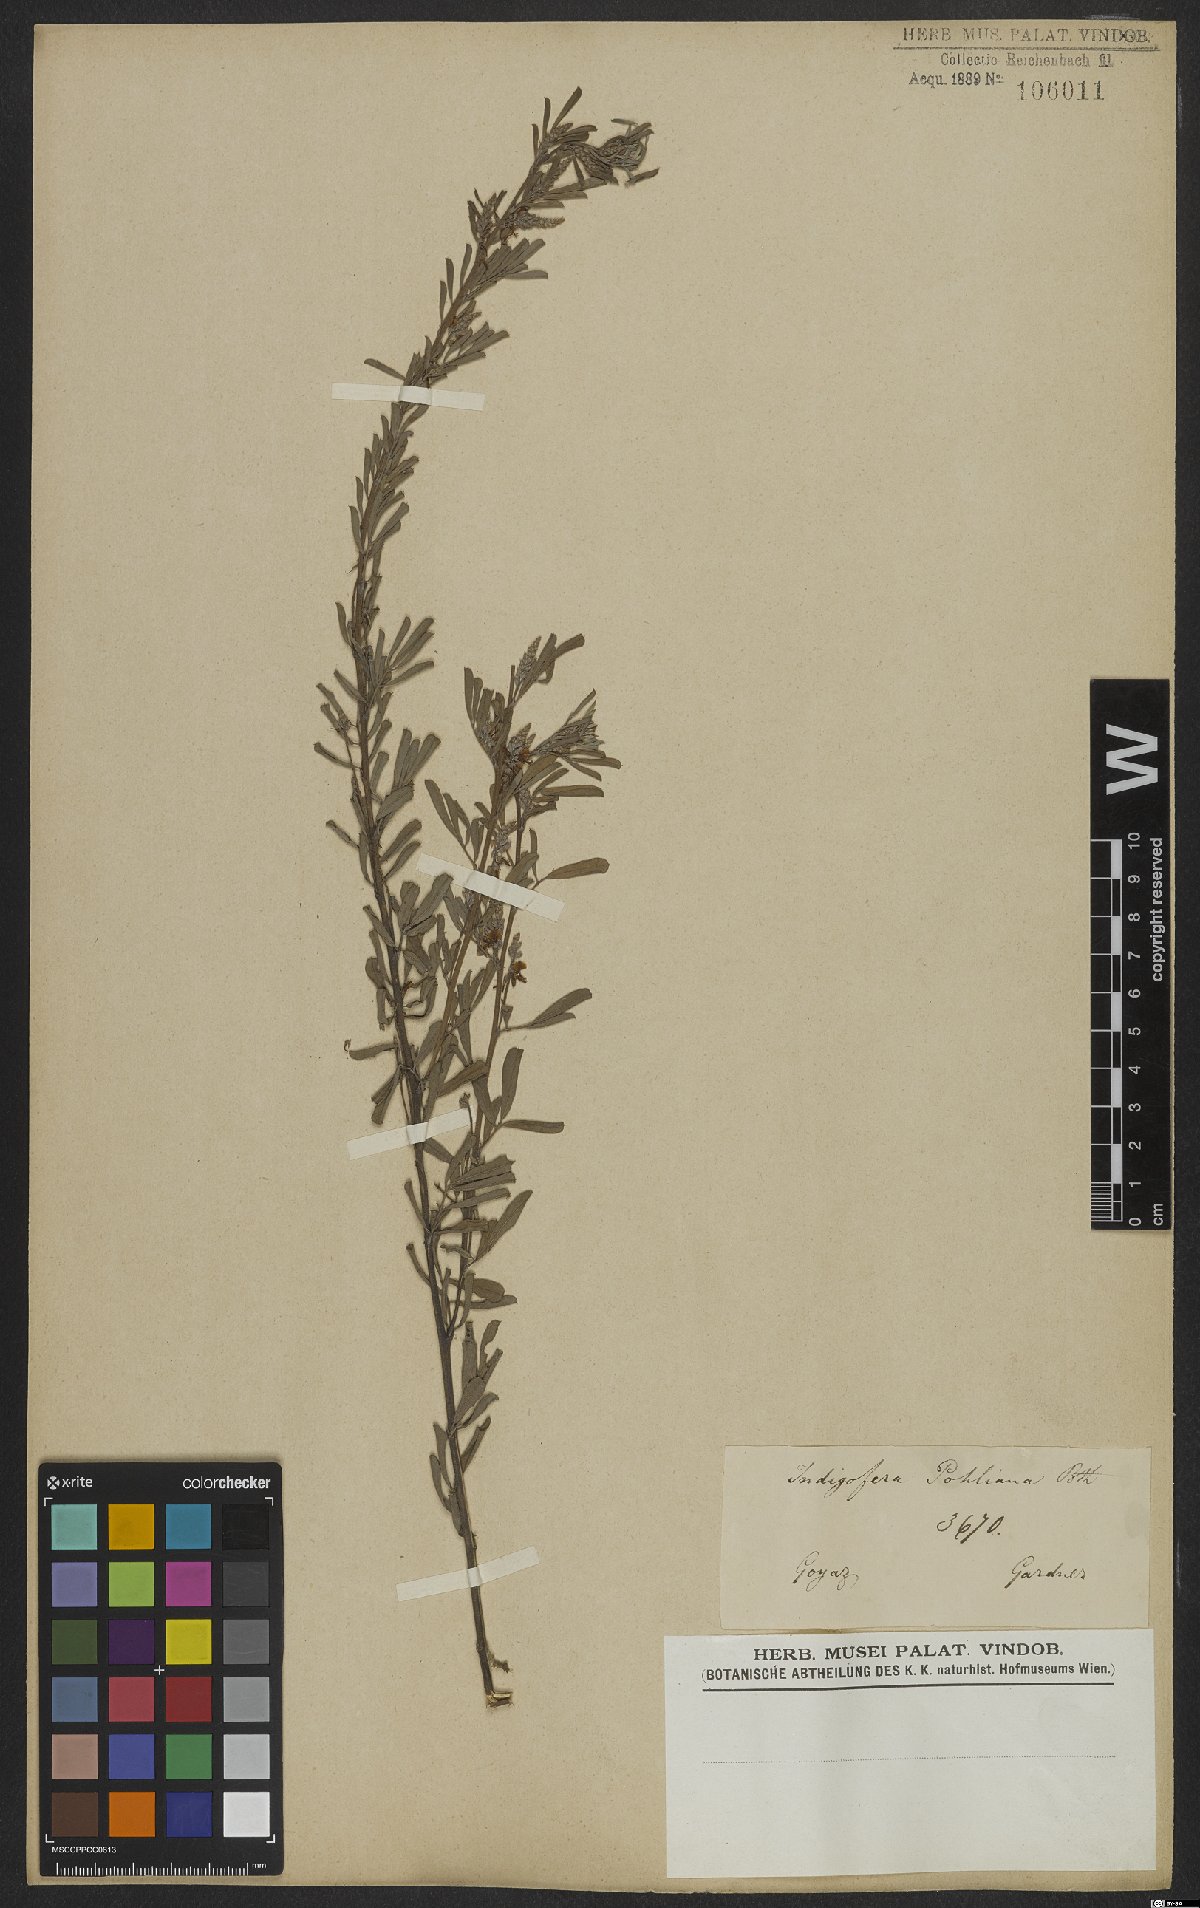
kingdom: Plantae
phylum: Tracheophyta
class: Magnoliopsida
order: Fabales
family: Fabaceae
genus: Indigofera
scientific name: Indigofera lespedezioides
